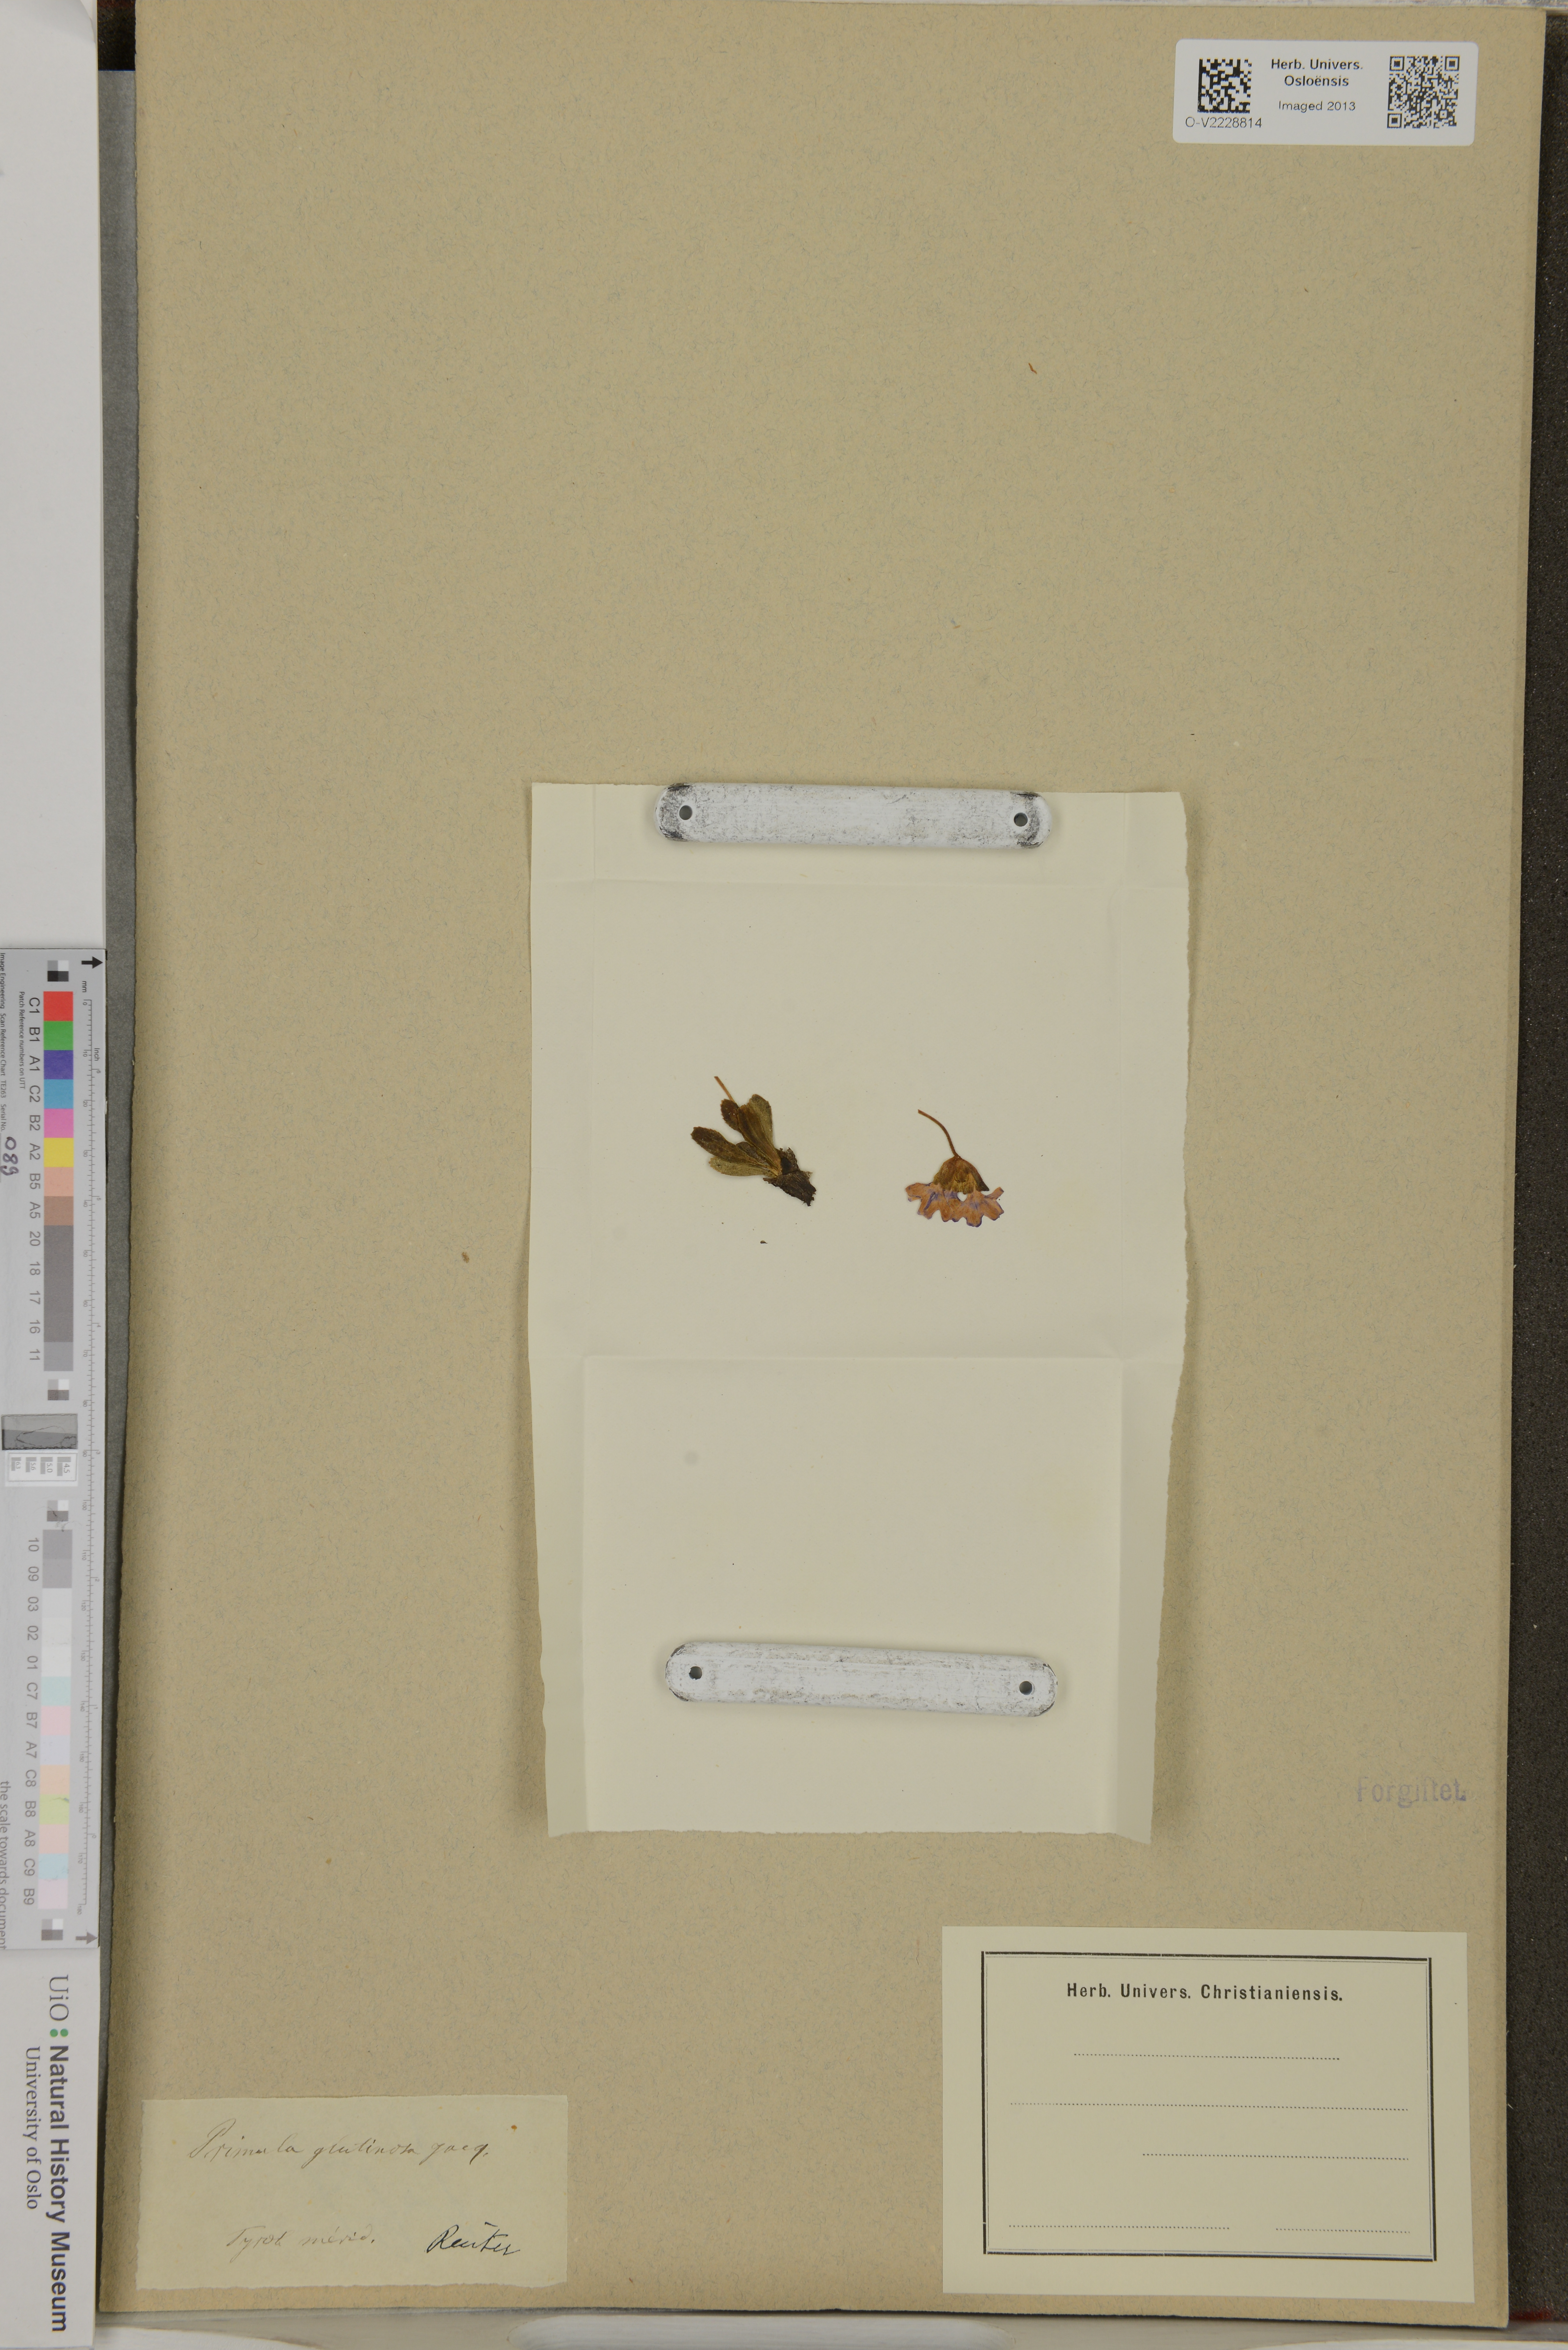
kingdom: Plantae
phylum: Tracheophyta
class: Magnoliopsida
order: Ericales
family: Primulaceae
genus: Primula
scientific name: Primula glutinosa
